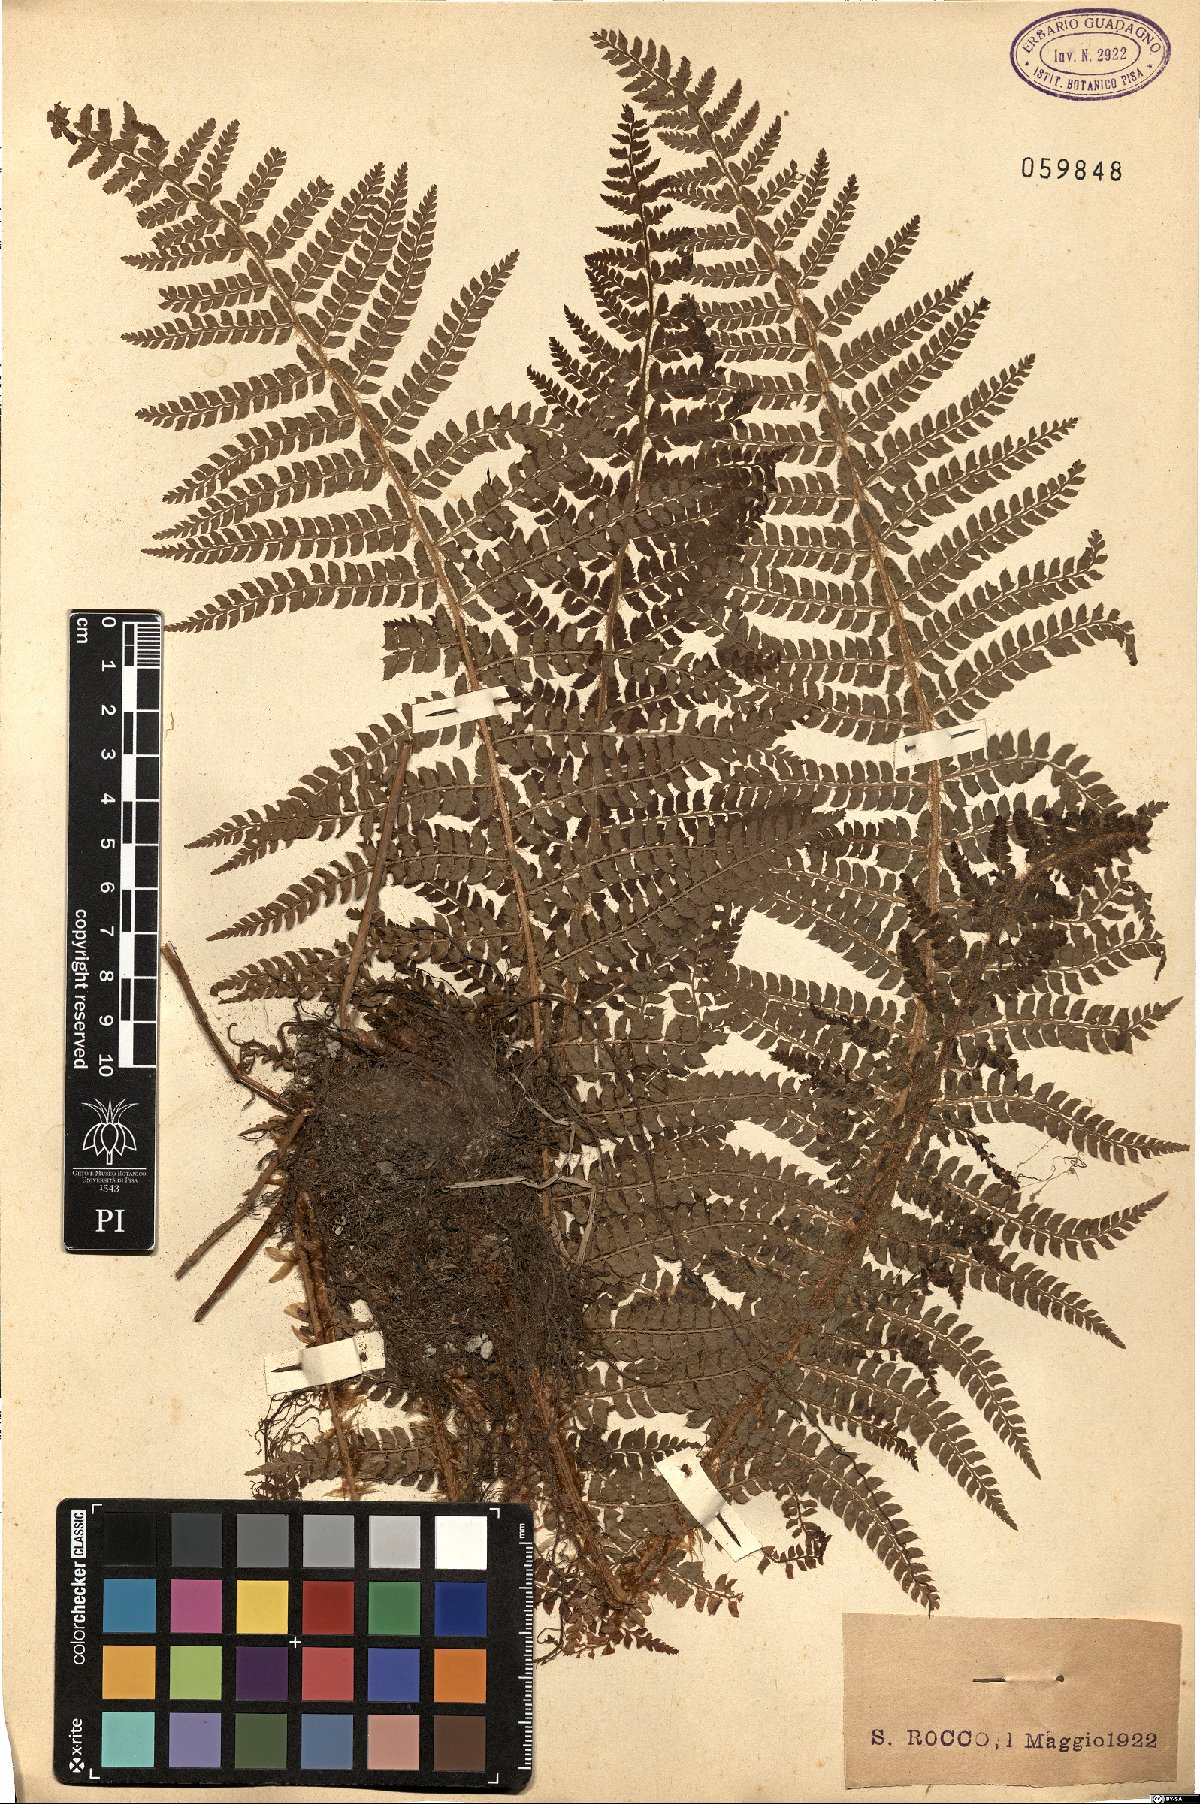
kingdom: Plantae
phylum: Tracheophyta
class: Polypodiopsida
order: Polypodiales
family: Dryopteridaceae
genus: Polystichum
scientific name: Polystichum
